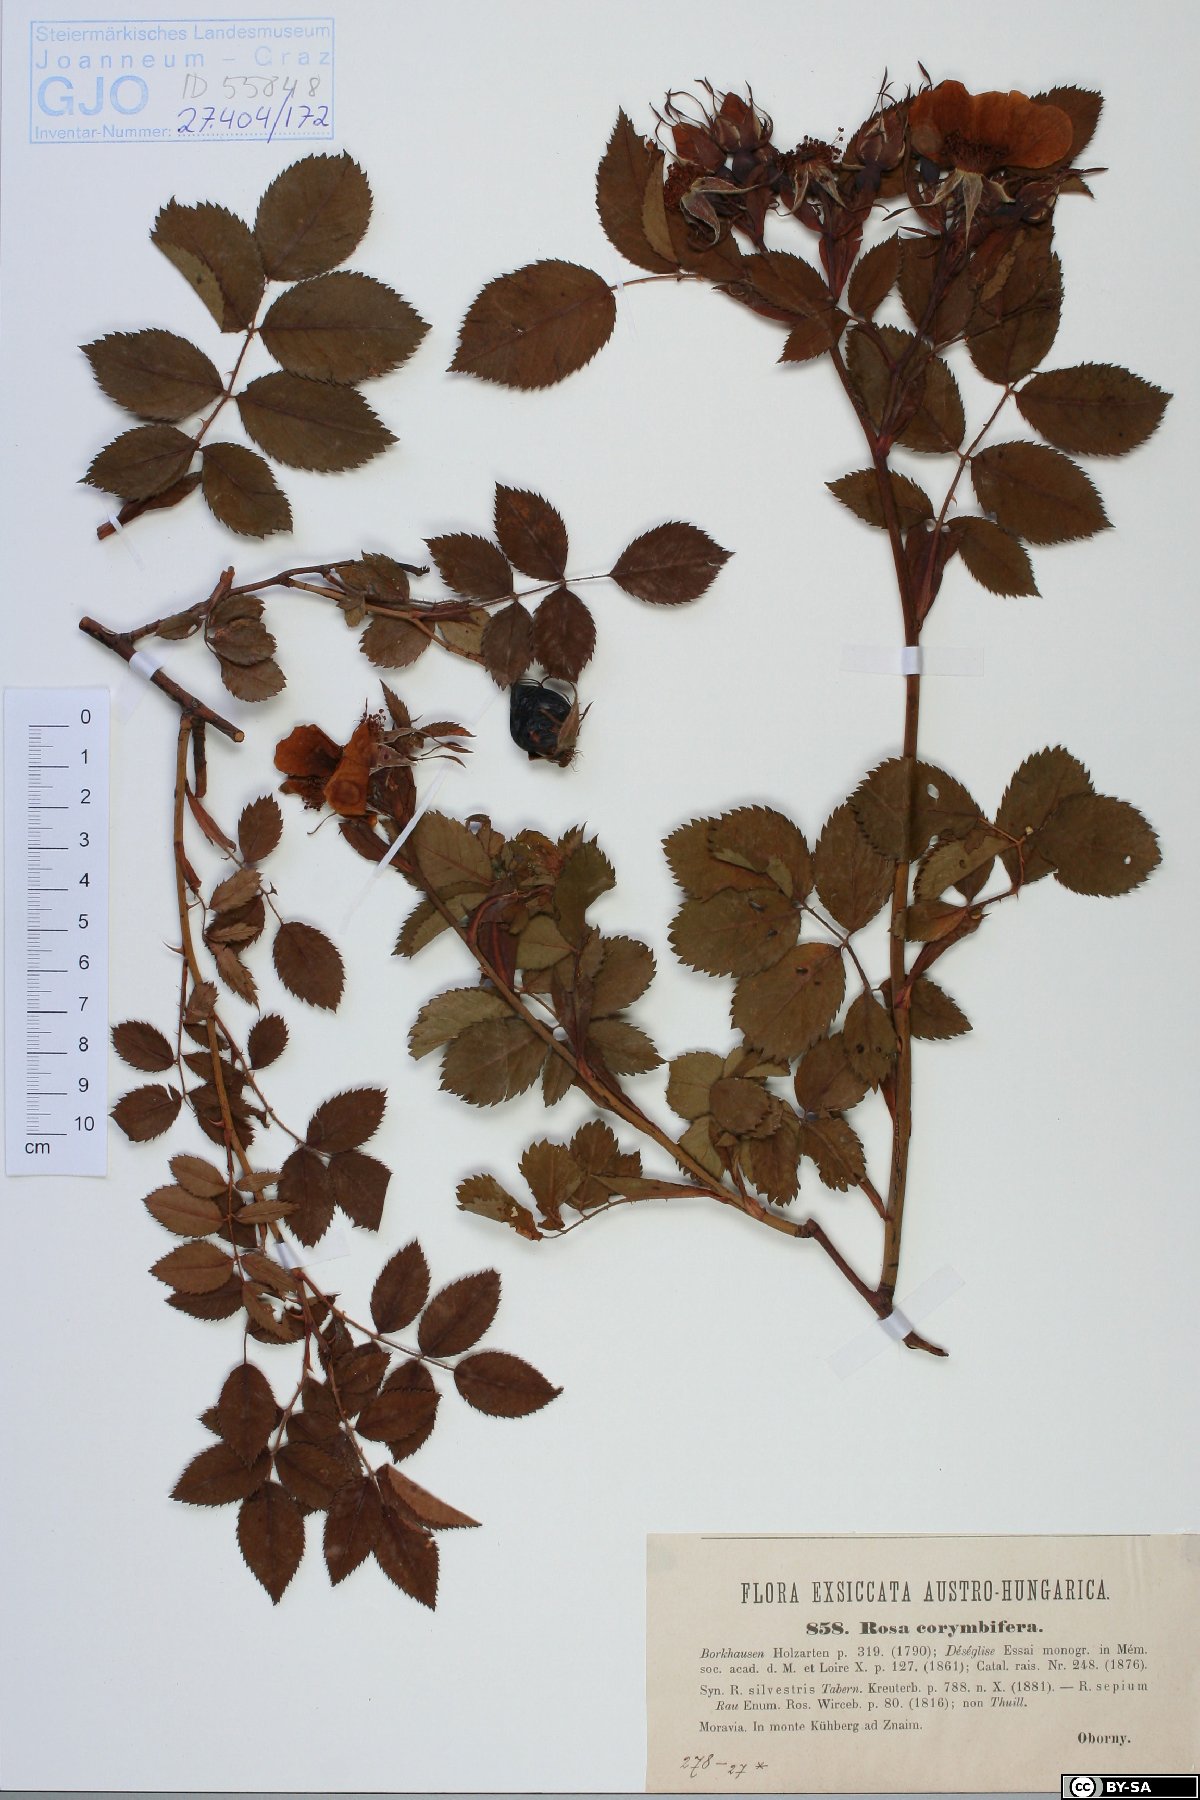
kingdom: Plantae
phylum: Tracheophyta
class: Magnoliopsida
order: Rosales
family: Rosaceae
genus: Rosa
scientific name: Rosa corymbifera
